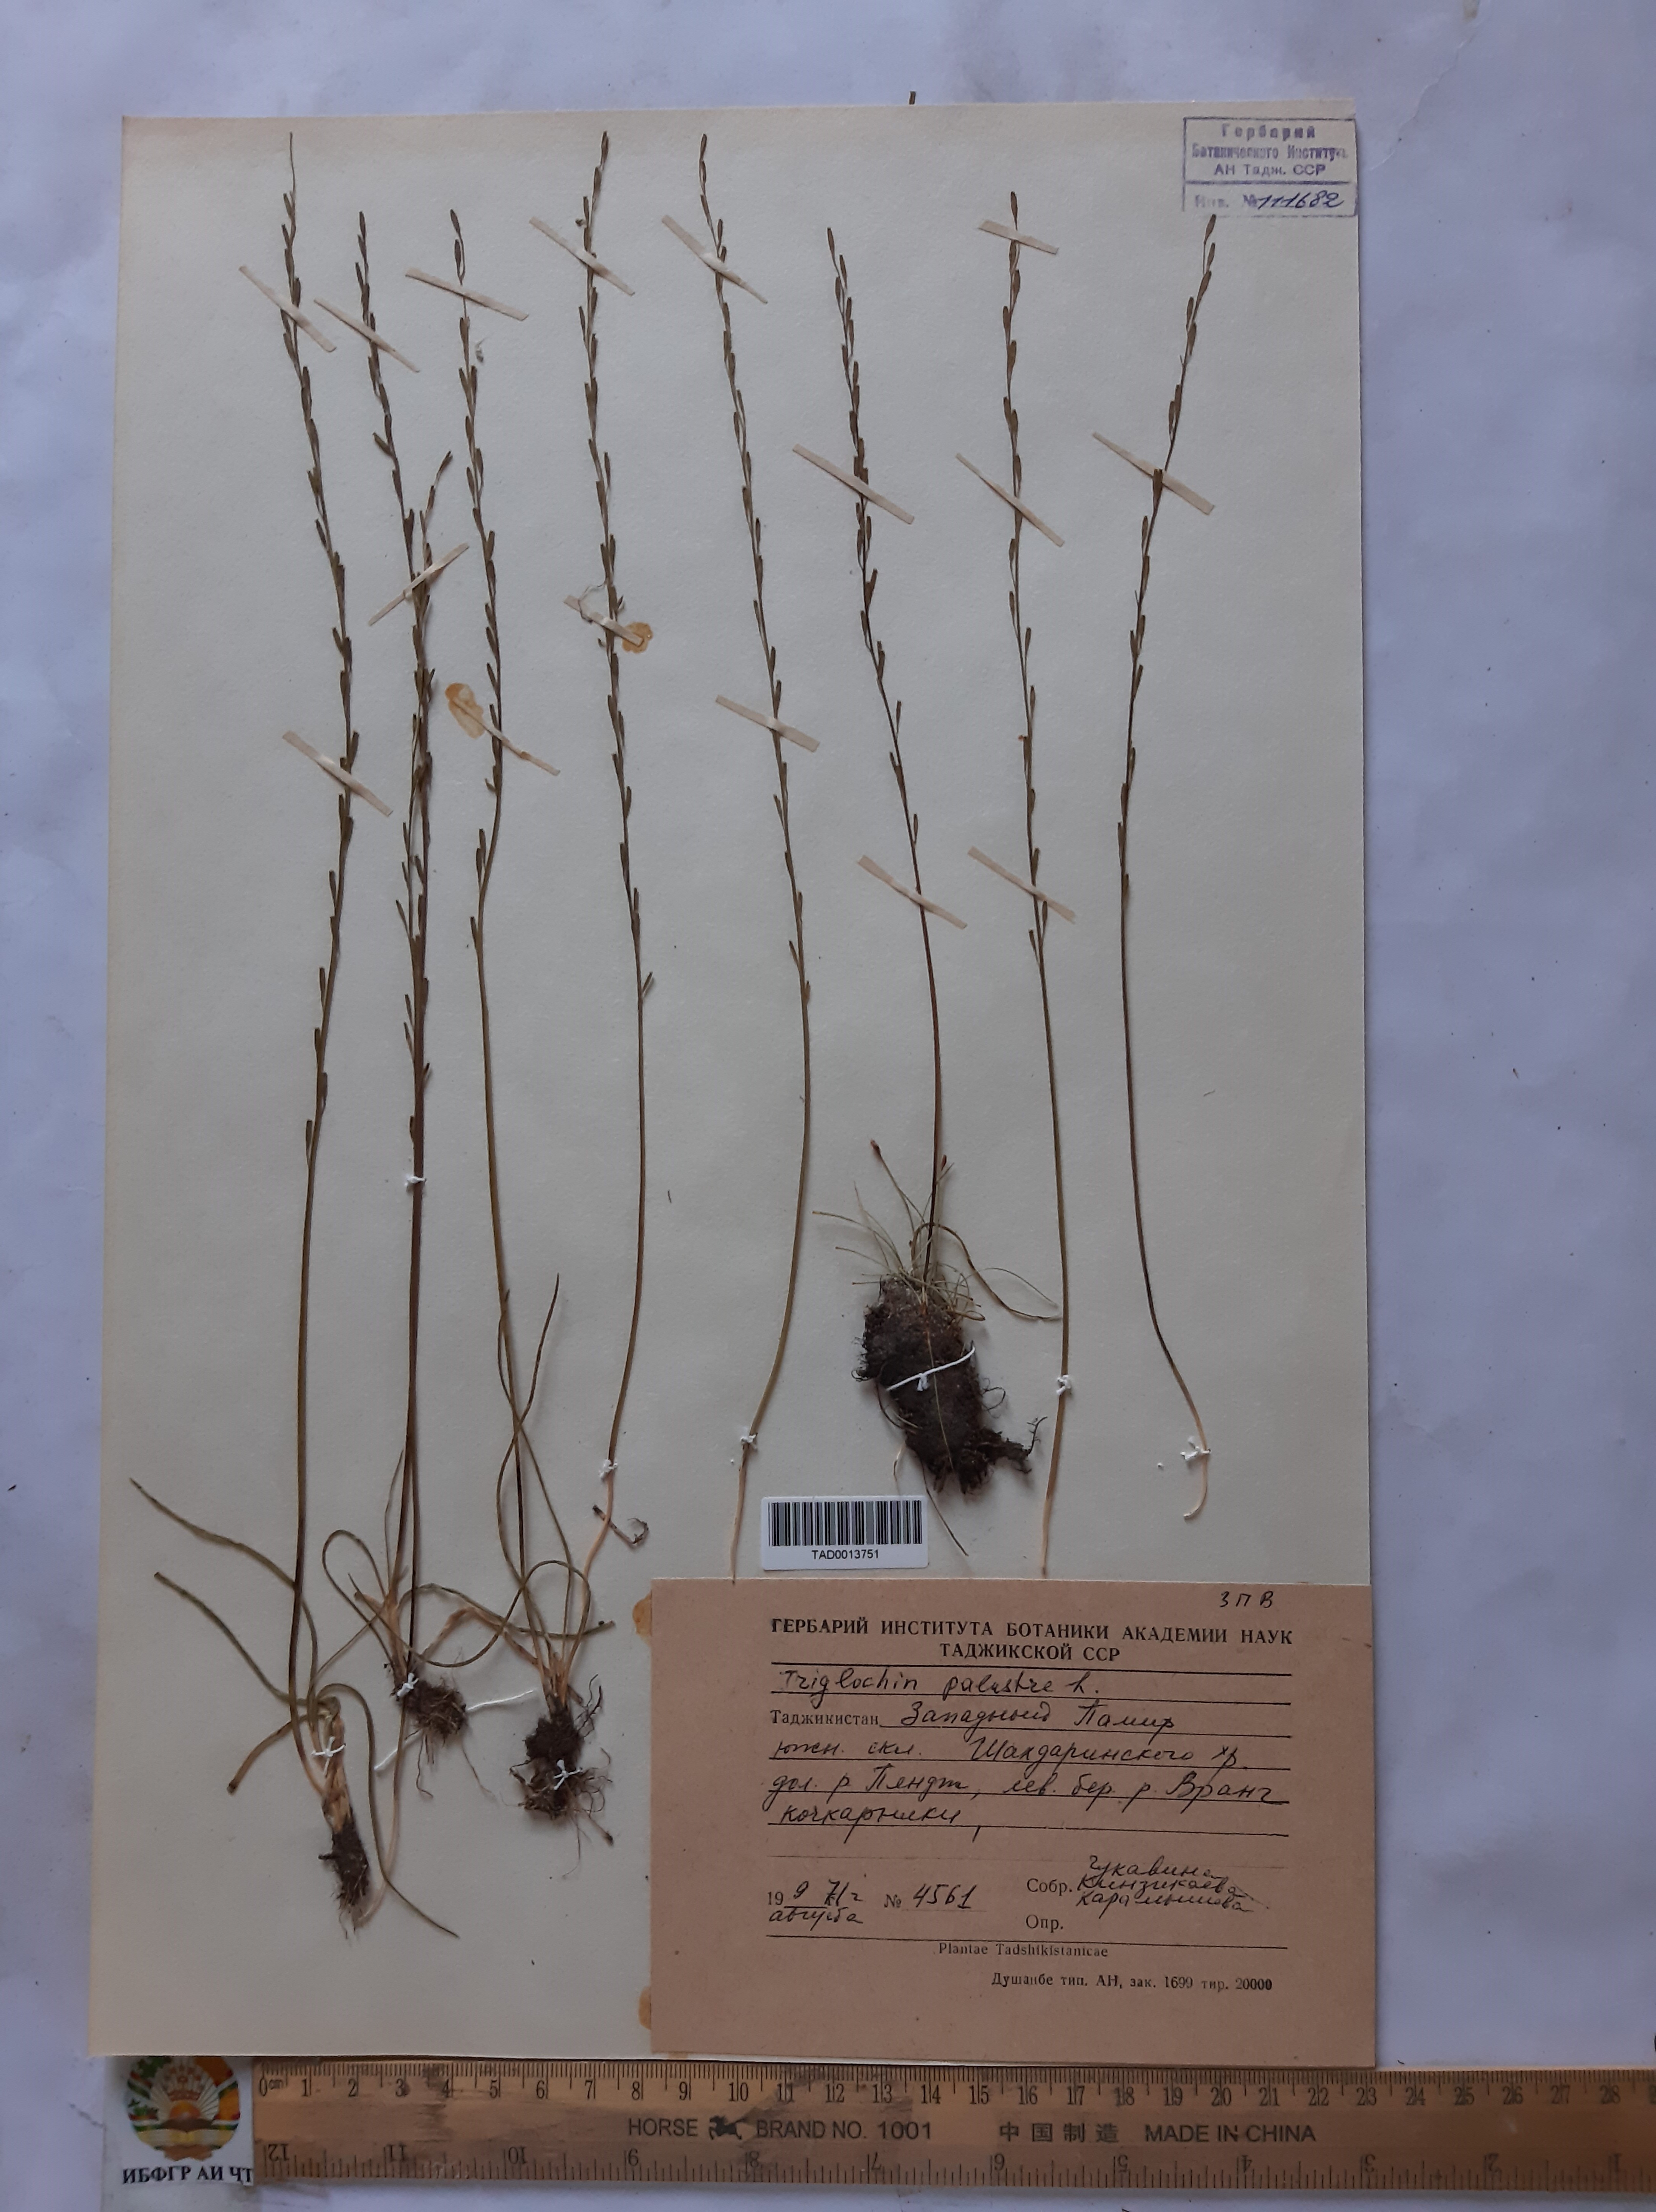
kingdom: Plantae
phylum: Tracheophyta
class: Liliopsida
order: Alismatales
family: Juncaginaceae
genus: Triglochin
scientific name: Triglochin palustris
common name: Marsh arrowgrass
